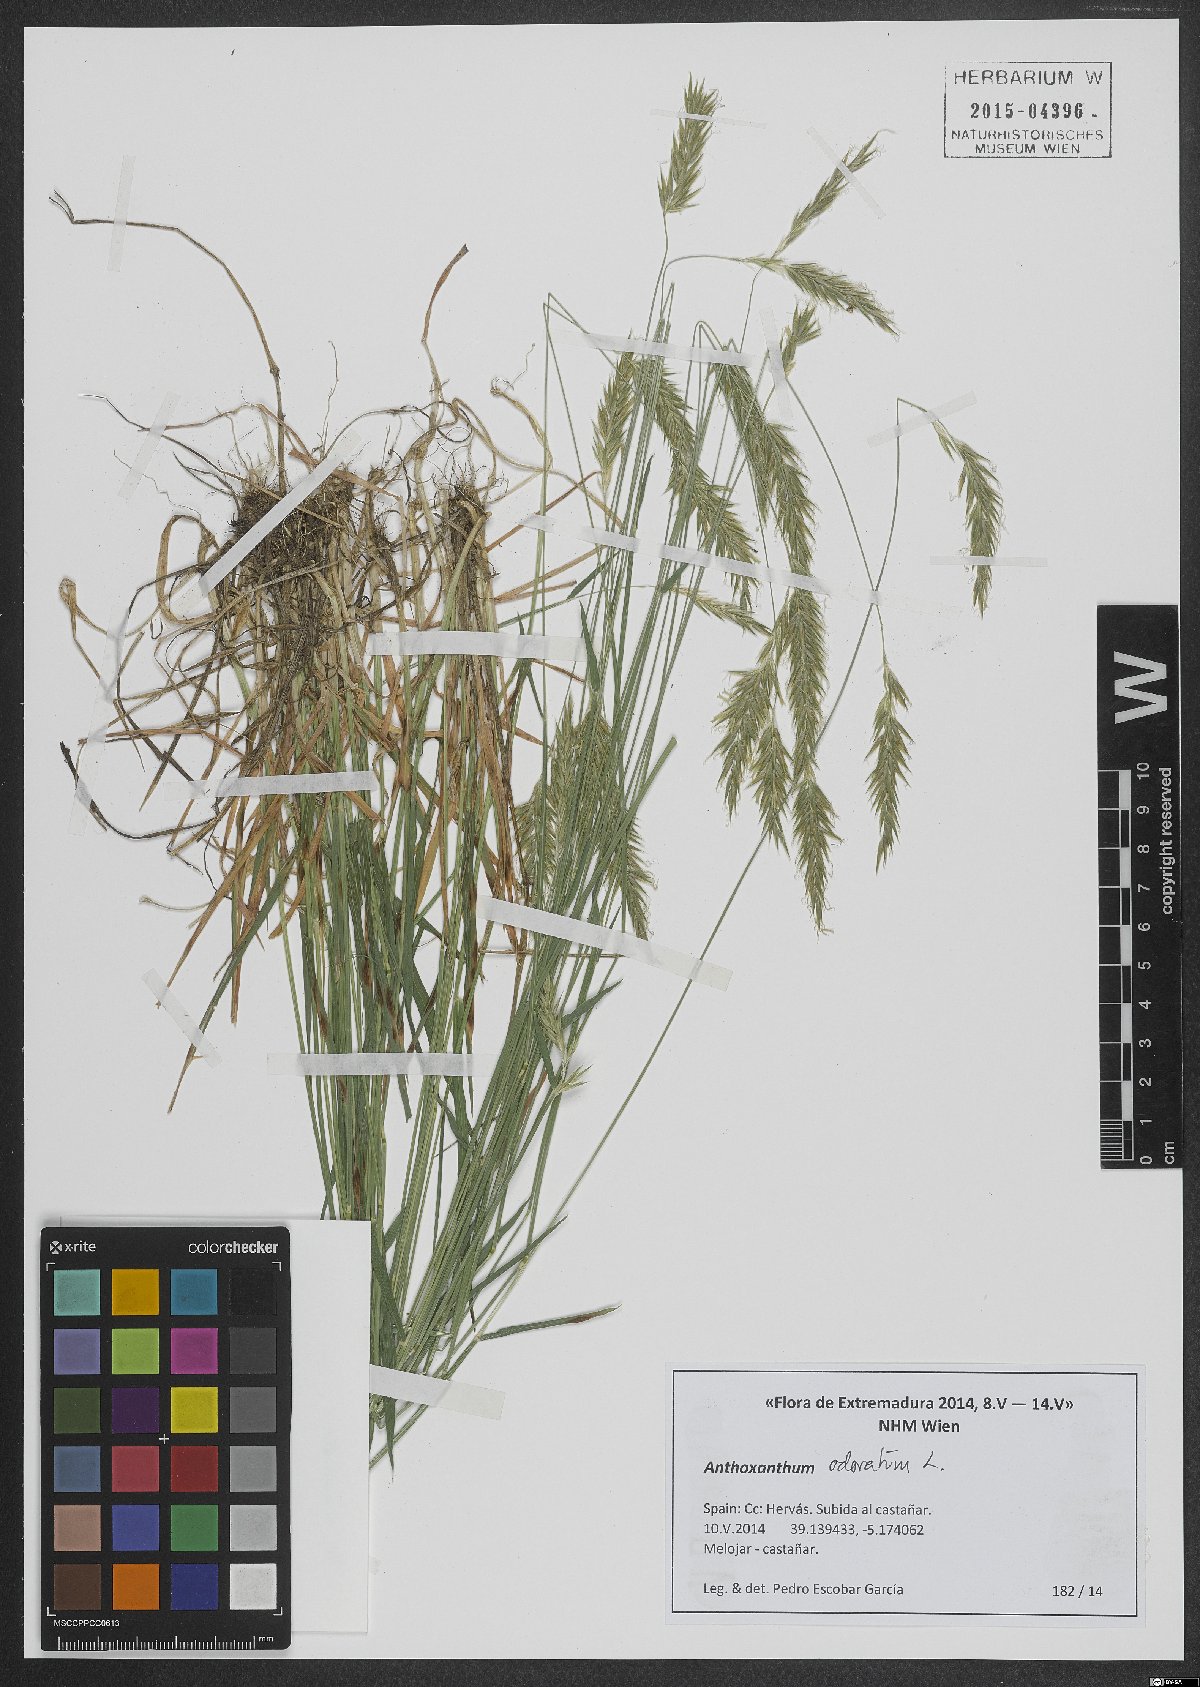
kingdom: Plantae
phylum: Tracheophyta
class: Liliopsida
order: Poales
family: Poaceae
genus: Anthoxanthum
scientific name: Anthoxanthum odoratum
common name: Sweet vernalgrass
